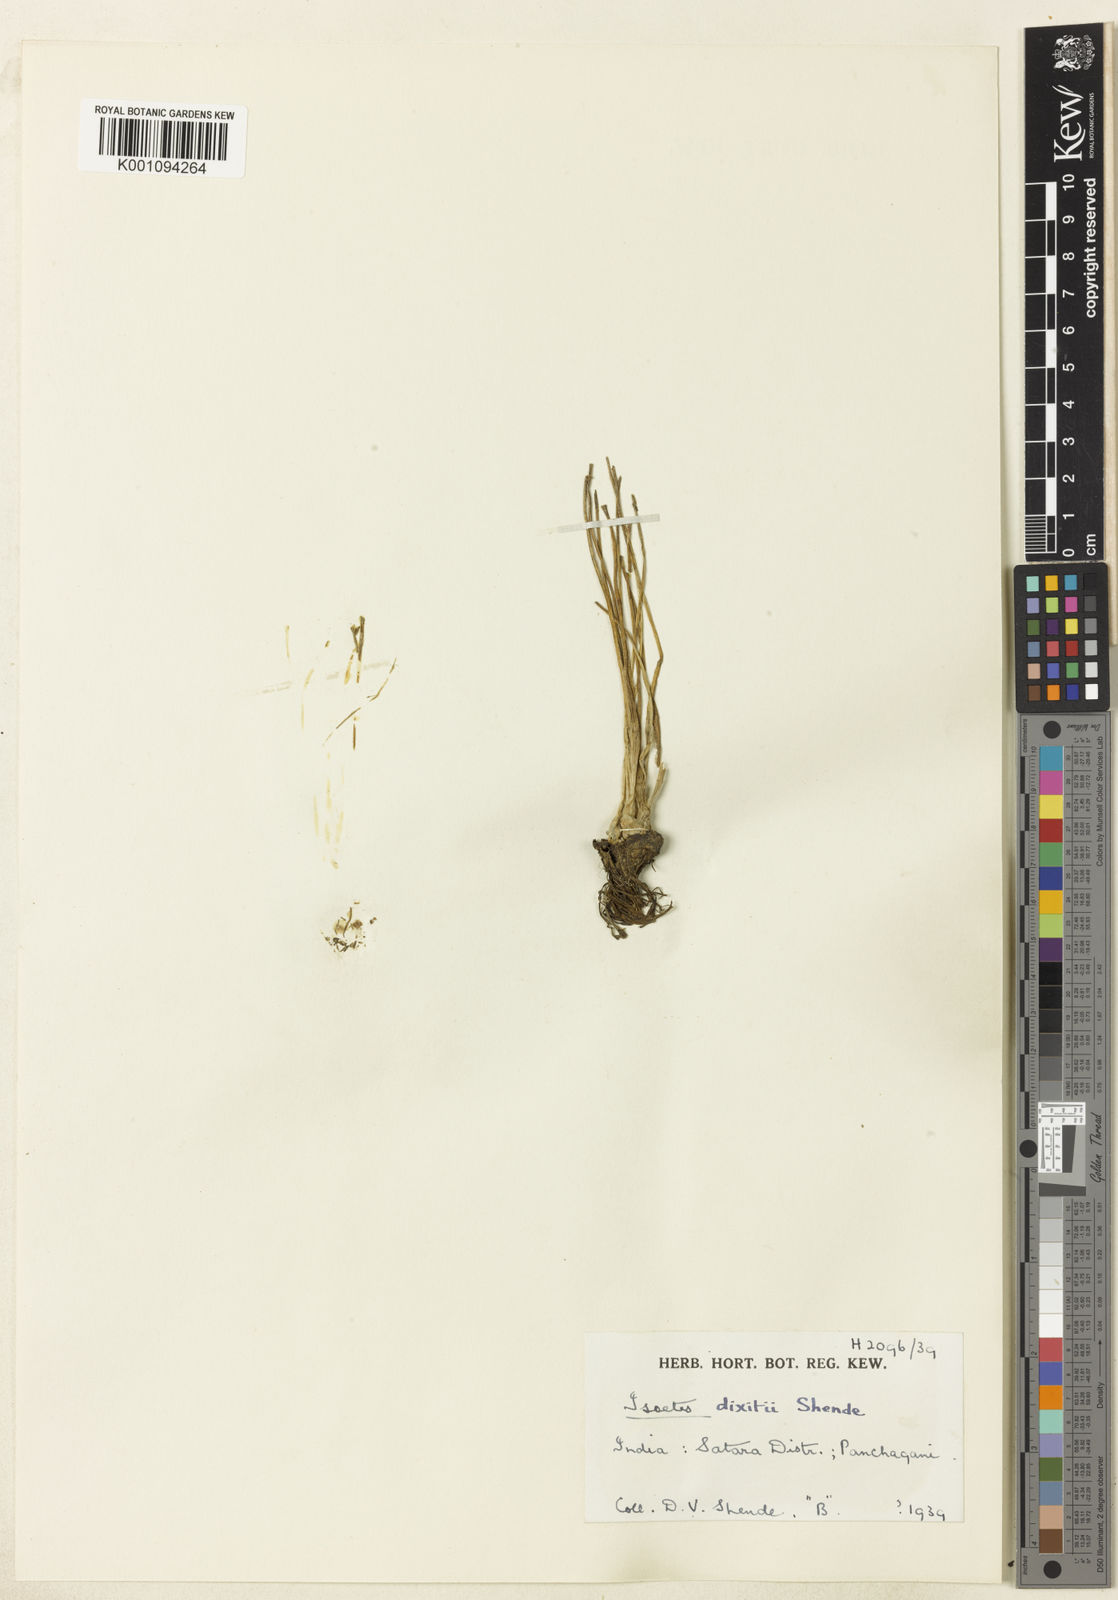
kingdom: Plantae
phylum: Tracheophyta
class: Lycopodiopsida
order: Isoetales
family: Isoetaceae
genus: Isoetes
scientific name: Isoetes dixitii
